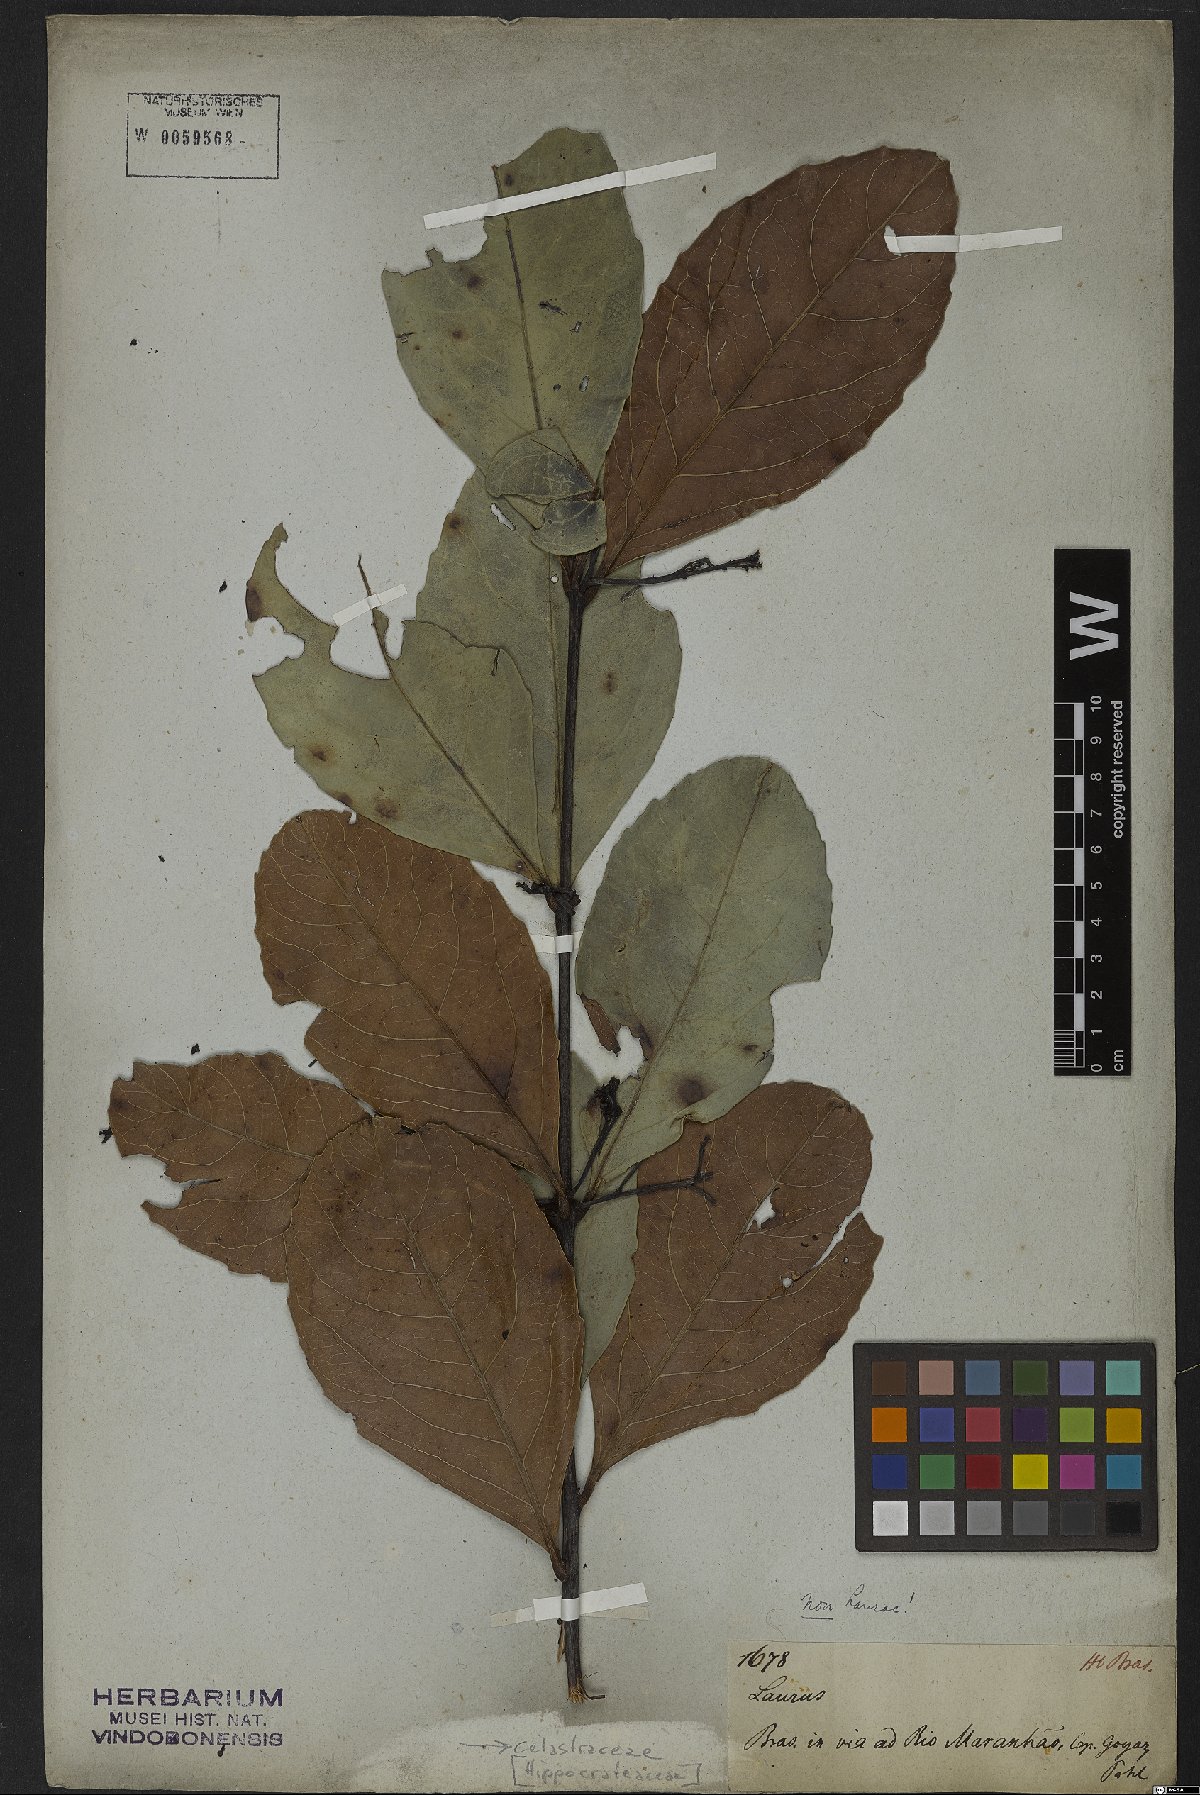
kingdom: Plantae
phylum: Tracheophyta
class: Magnoliopsida
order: Celastrales
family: Celastraceae
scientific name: Celastraceae
